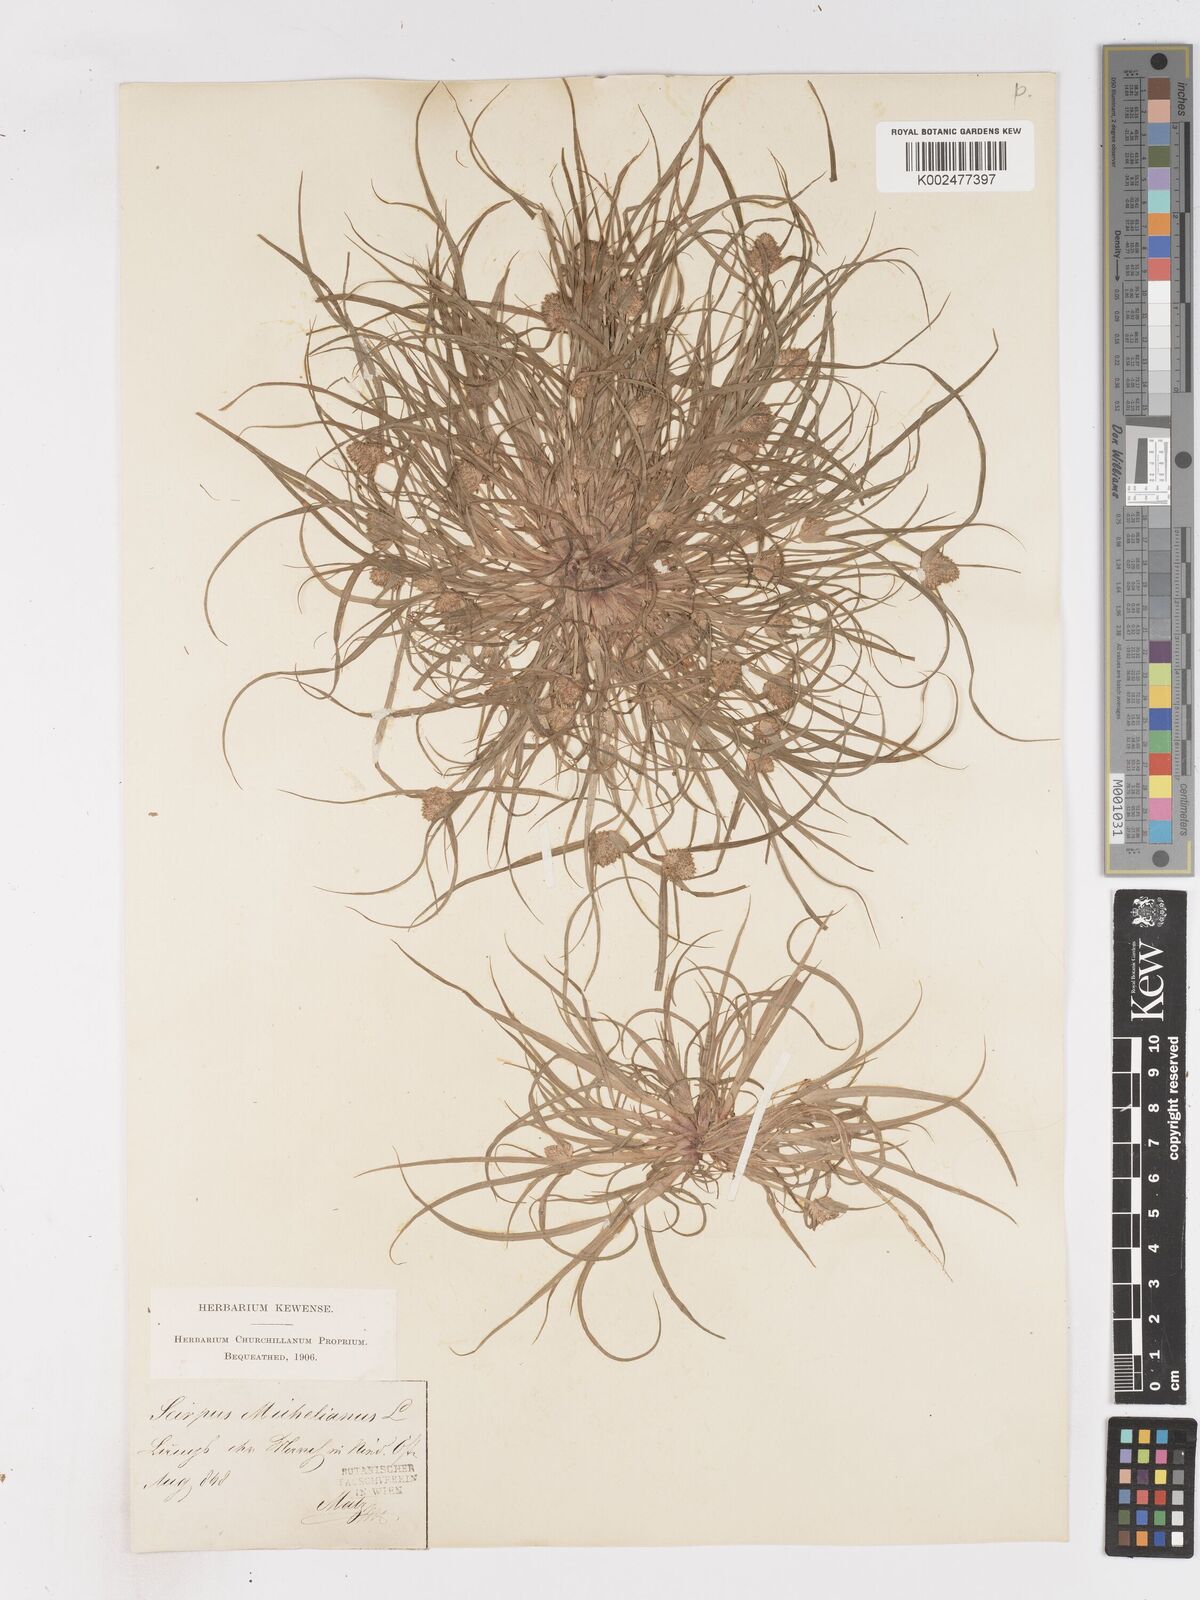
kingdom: Plantae
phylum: Tracheophyta
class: Liliopsida
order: Poales
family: Cyperaceae
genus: Cyperus
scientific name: Cyperus michelianus
